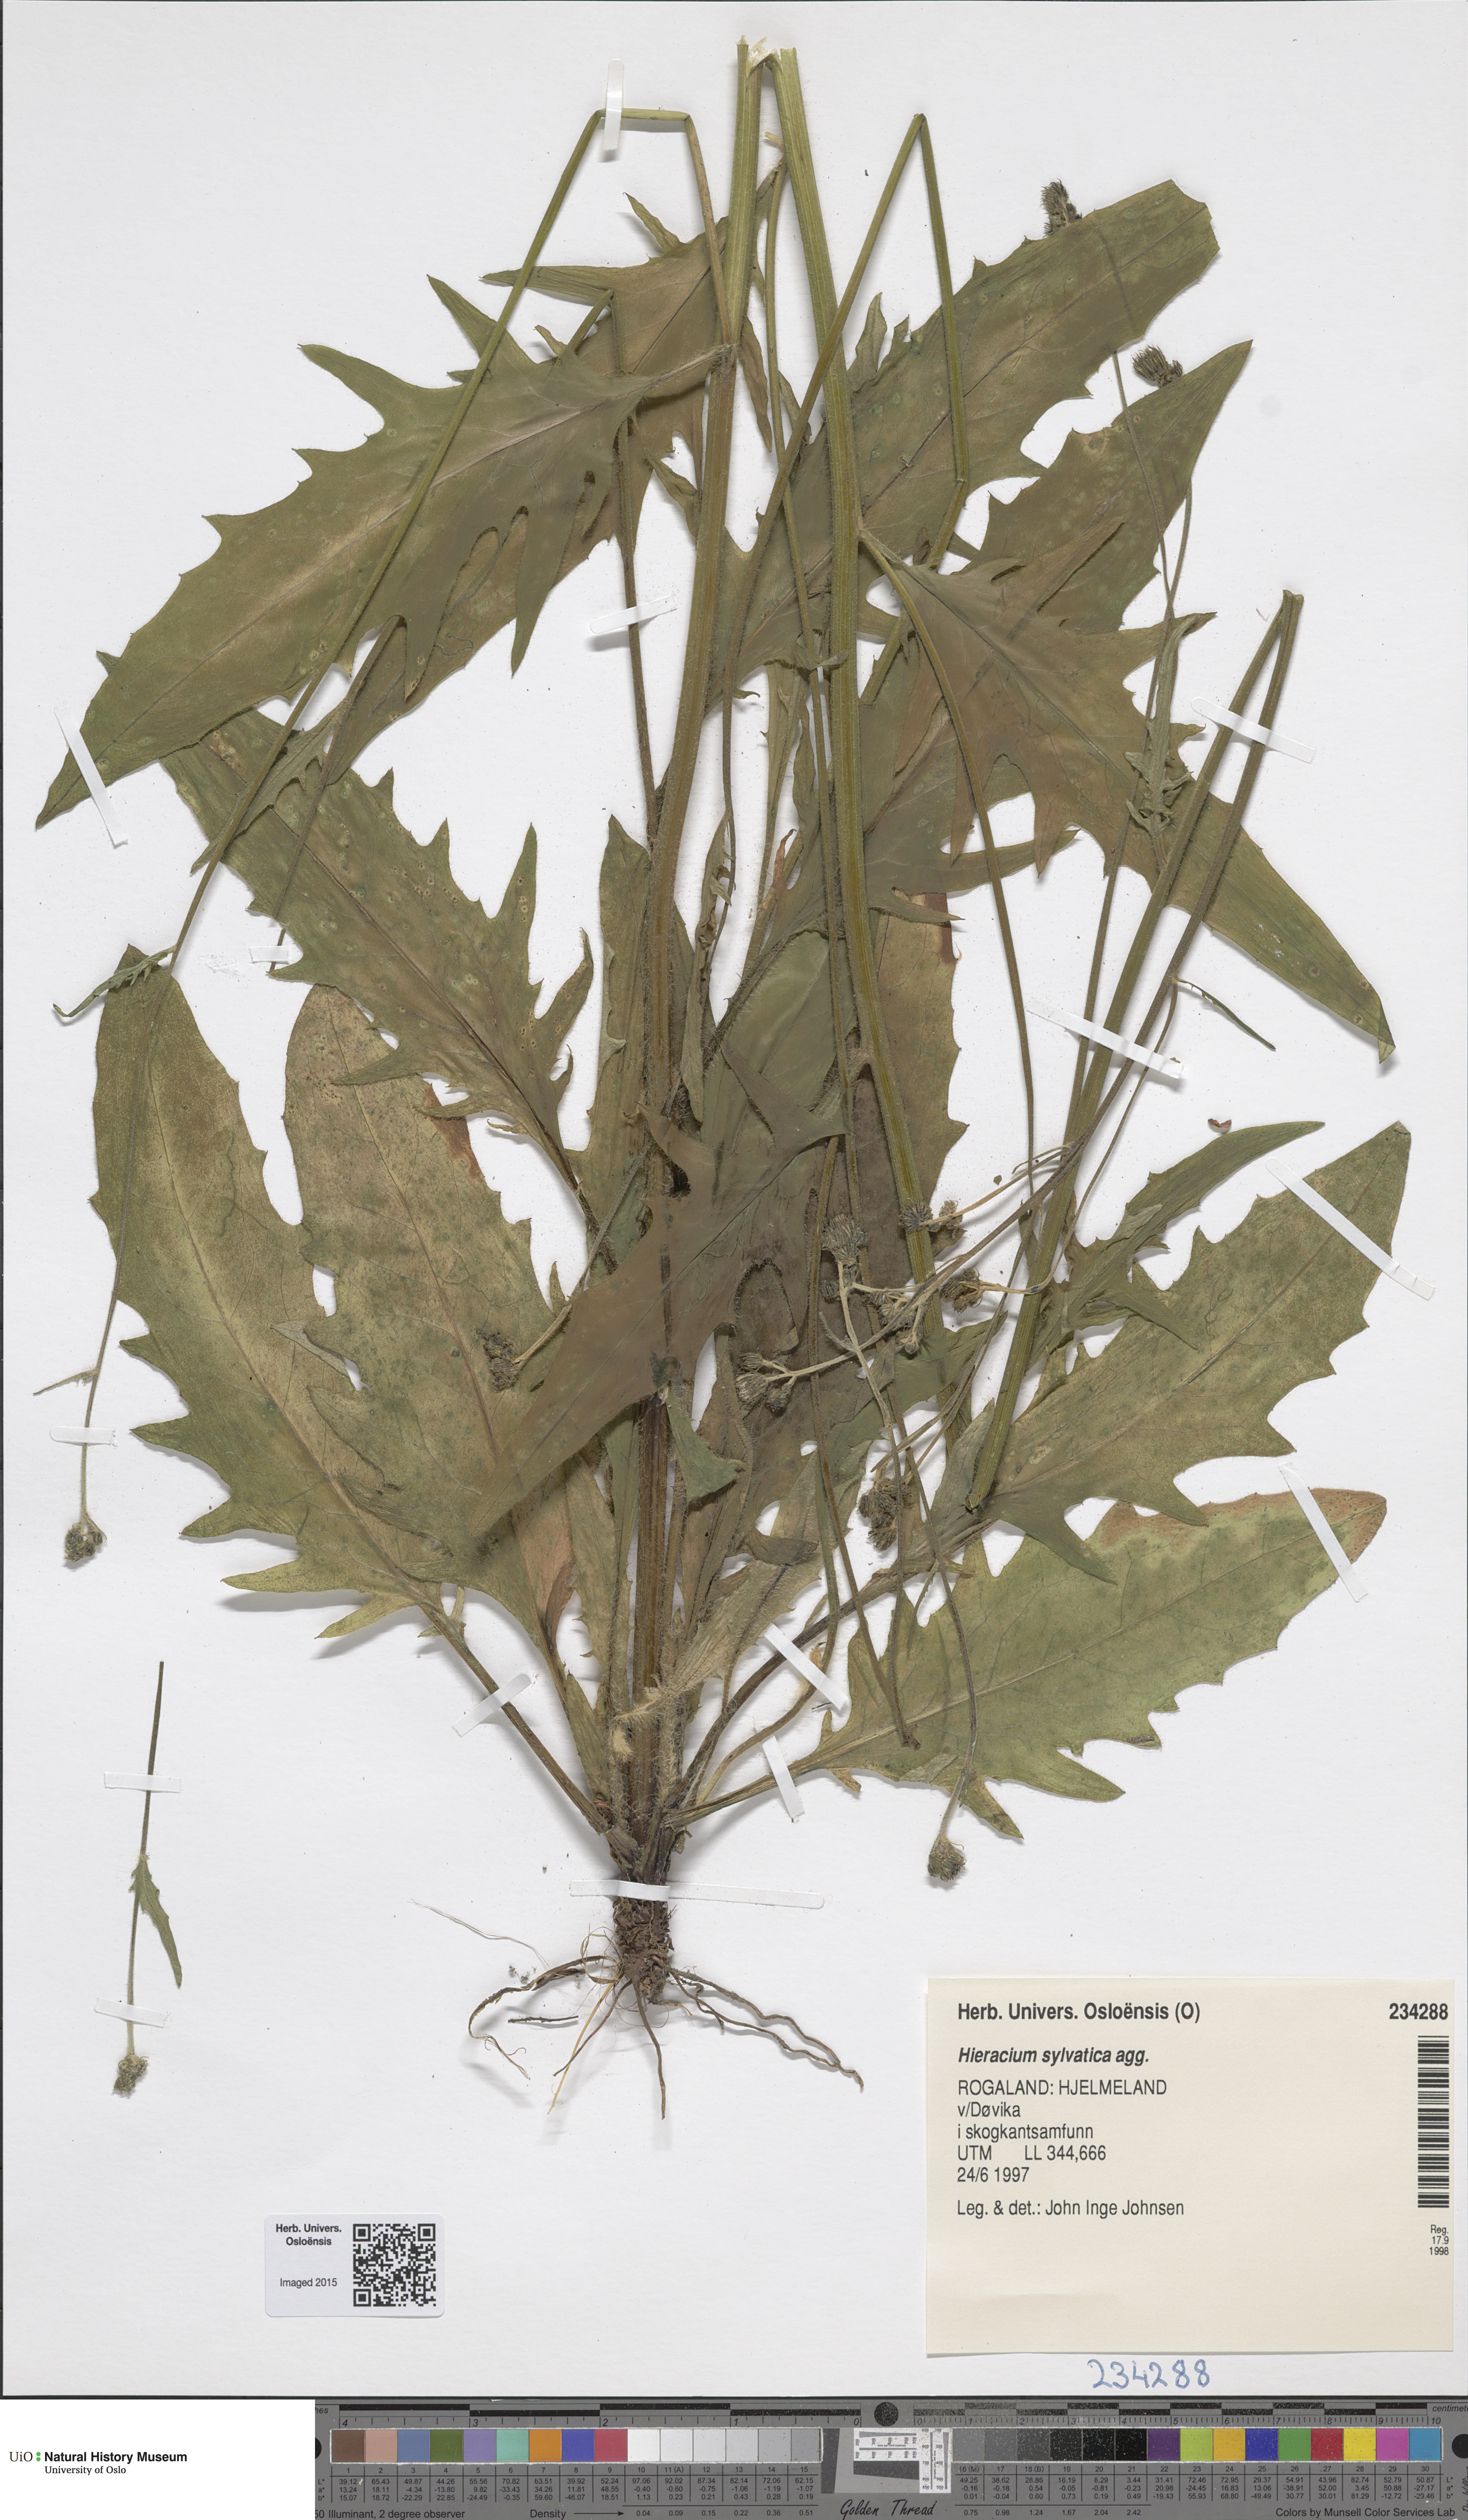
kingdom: Plantae
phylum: Tracheophyta
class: Liliopsida
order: Poales
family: Poaceae
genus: Festuca
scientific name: Festuca altissima
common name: Wood fescue
